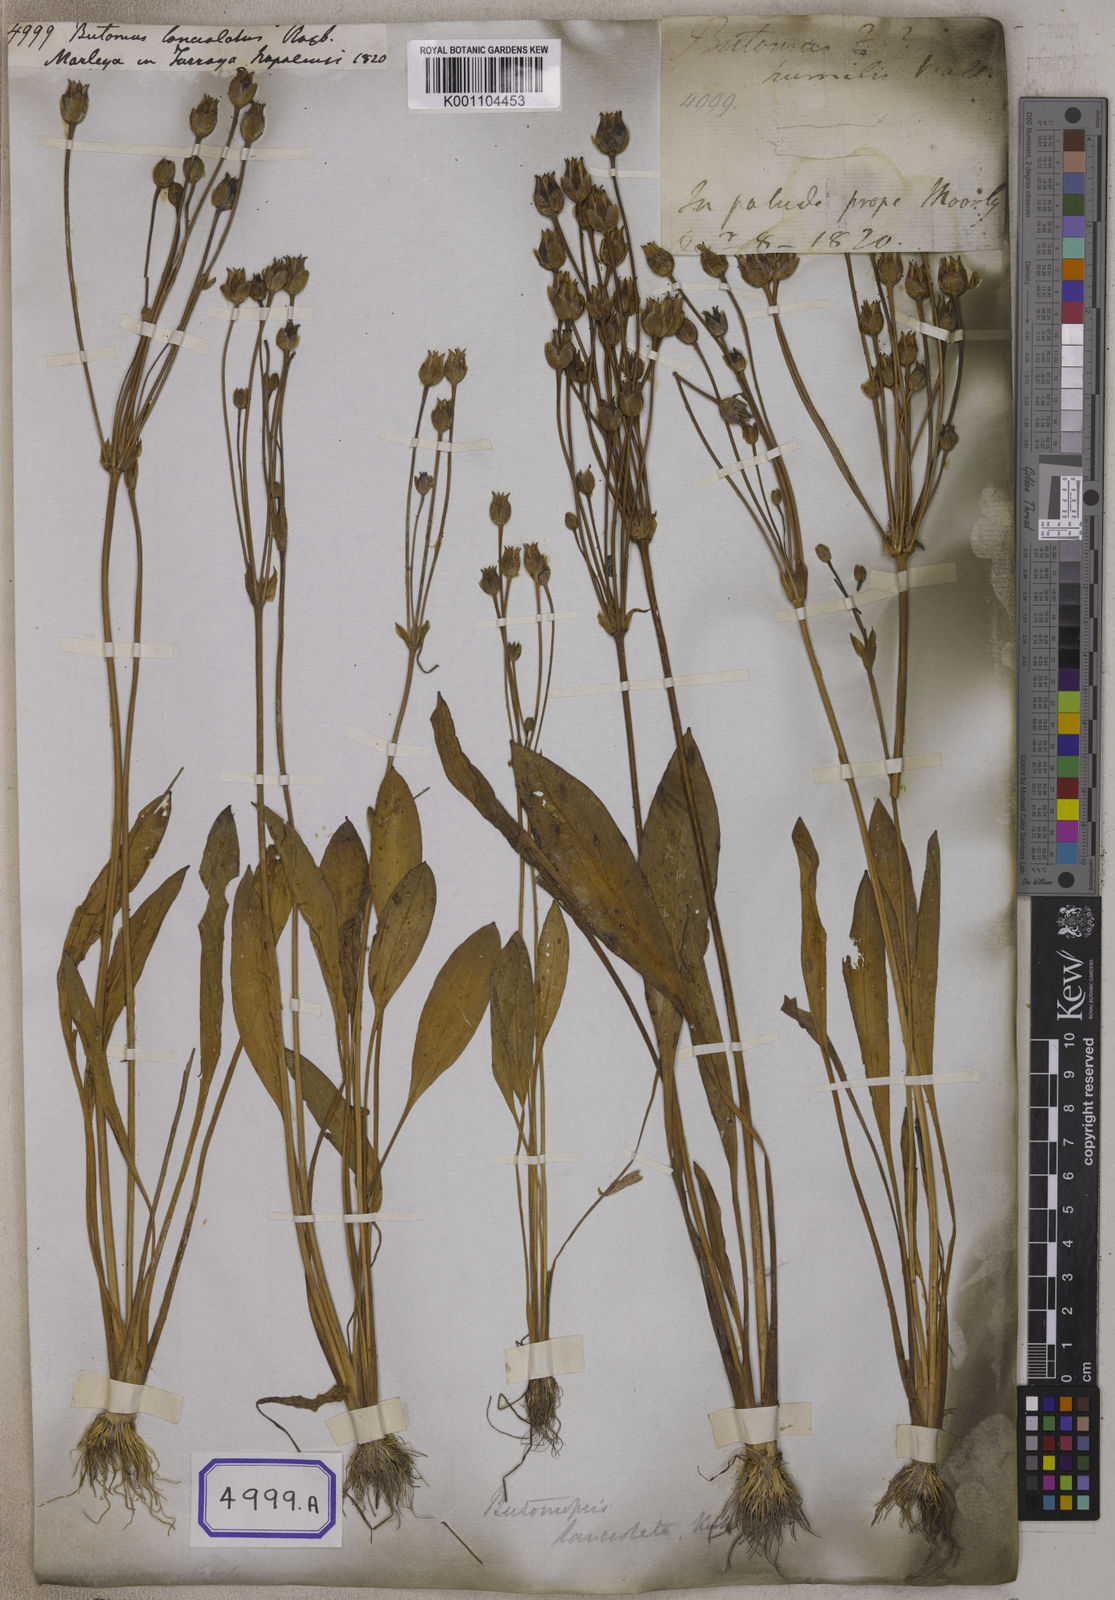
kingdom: Plantae
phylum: Tracheophyta
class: Liliopsida
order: Alismatales
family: Alismataceae
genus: Butomopsis
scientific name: Butomopsis latifolia
